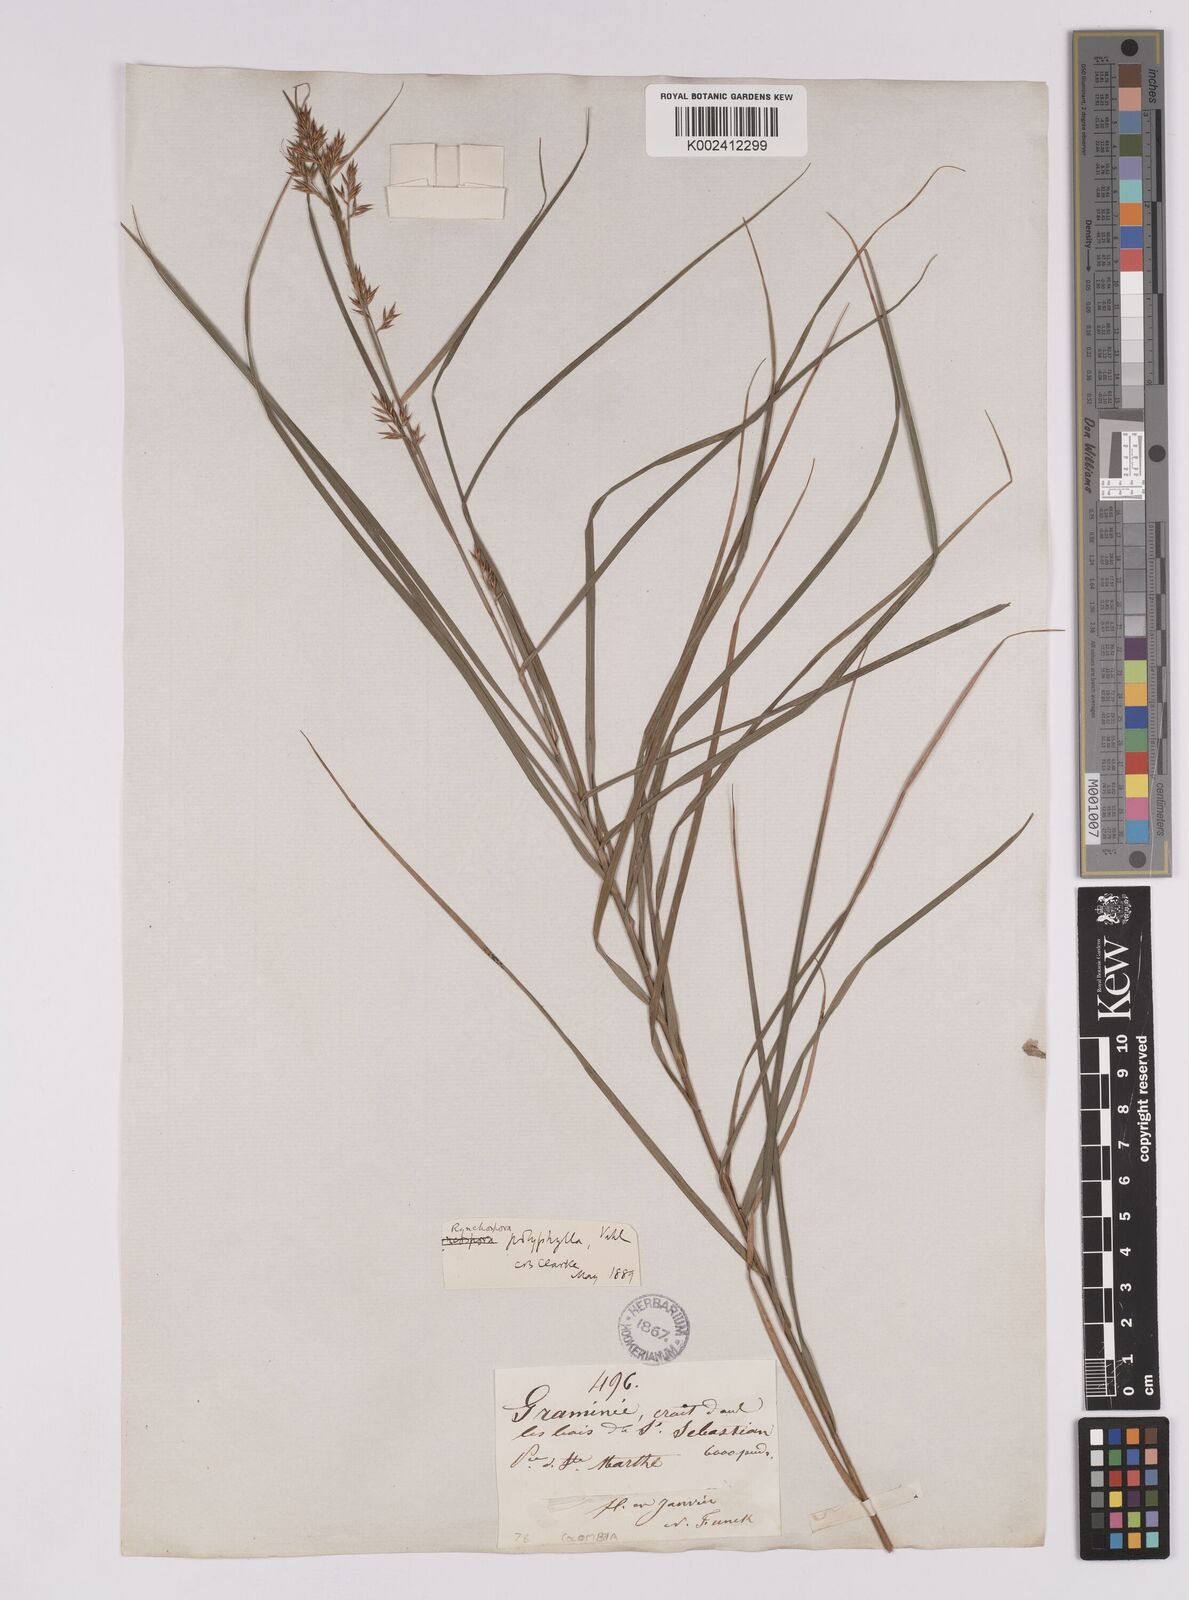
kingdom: Plantae
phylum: Tracheophyta
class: Liliopsida
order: Poales
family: Cyperaceae
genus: Rhynchospora
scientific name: Rhynchospora polyphylla
